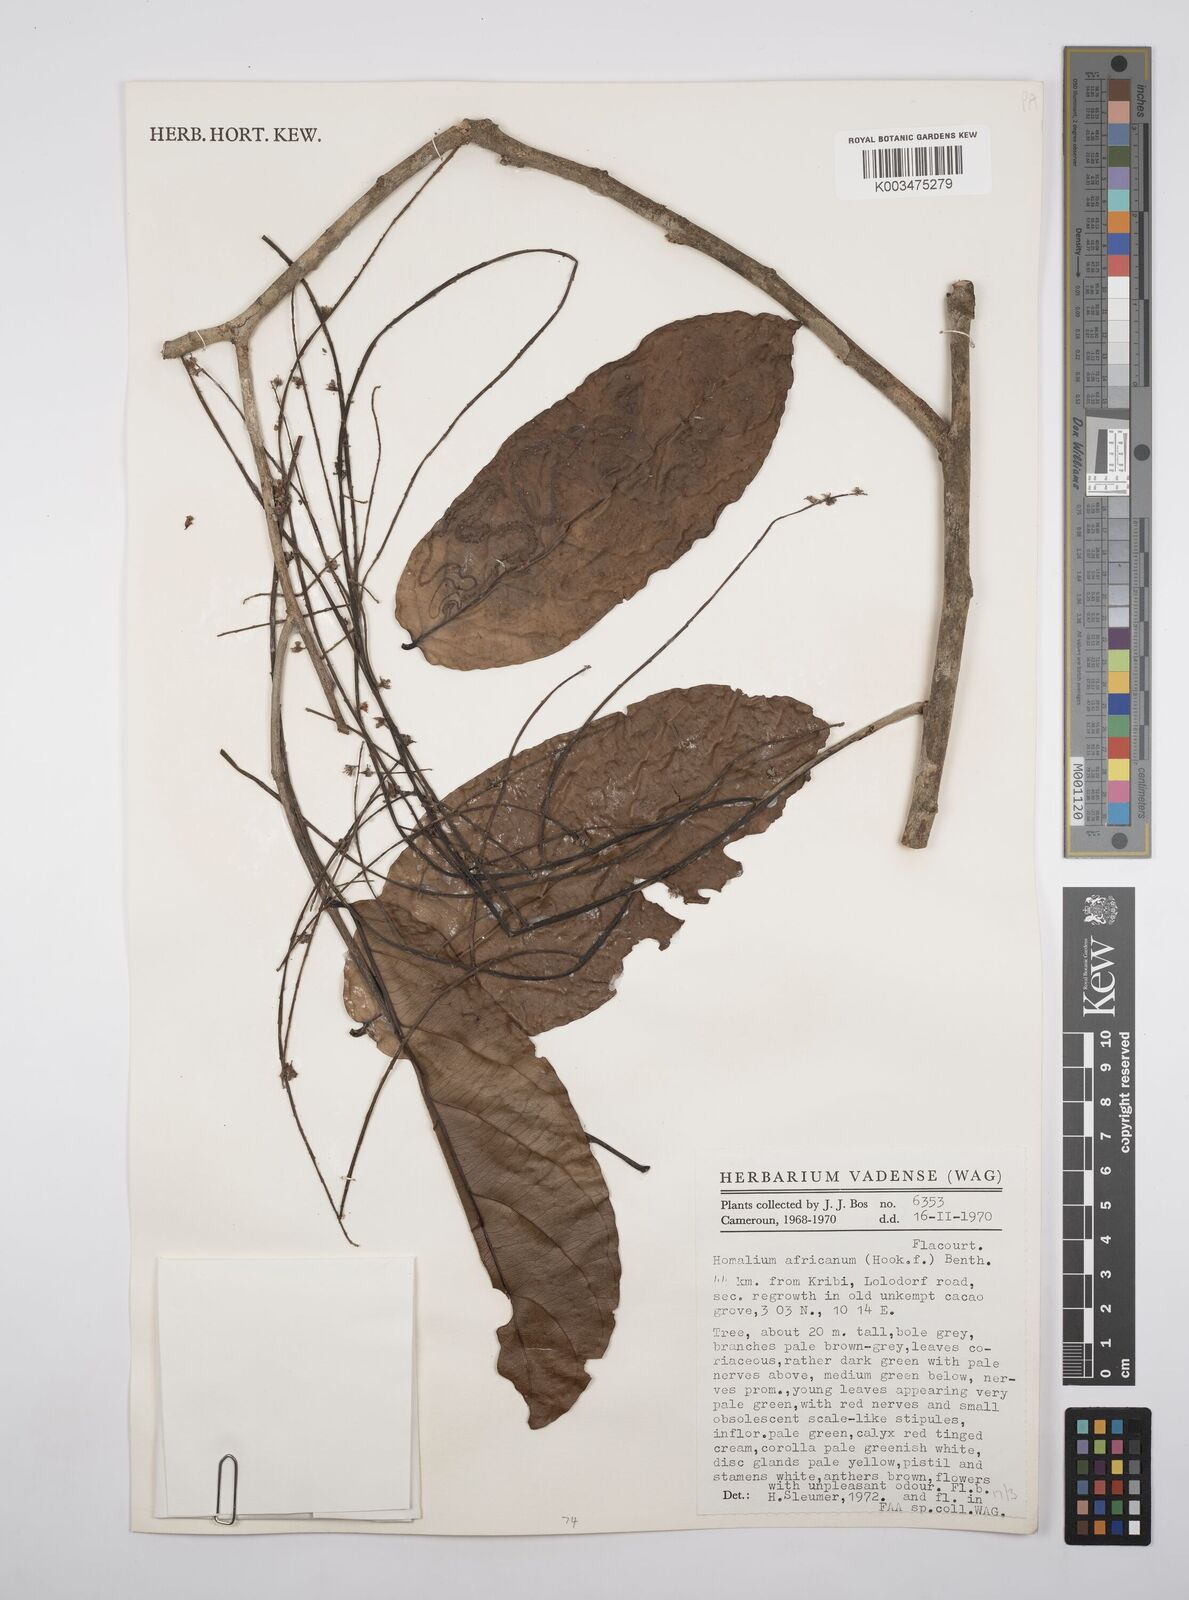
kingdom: Plantae
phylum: Tracheophyta
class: Magnoliopsida
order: Malpighiales
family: Salicaceae
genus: Homalium
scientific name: Homalium africanum
